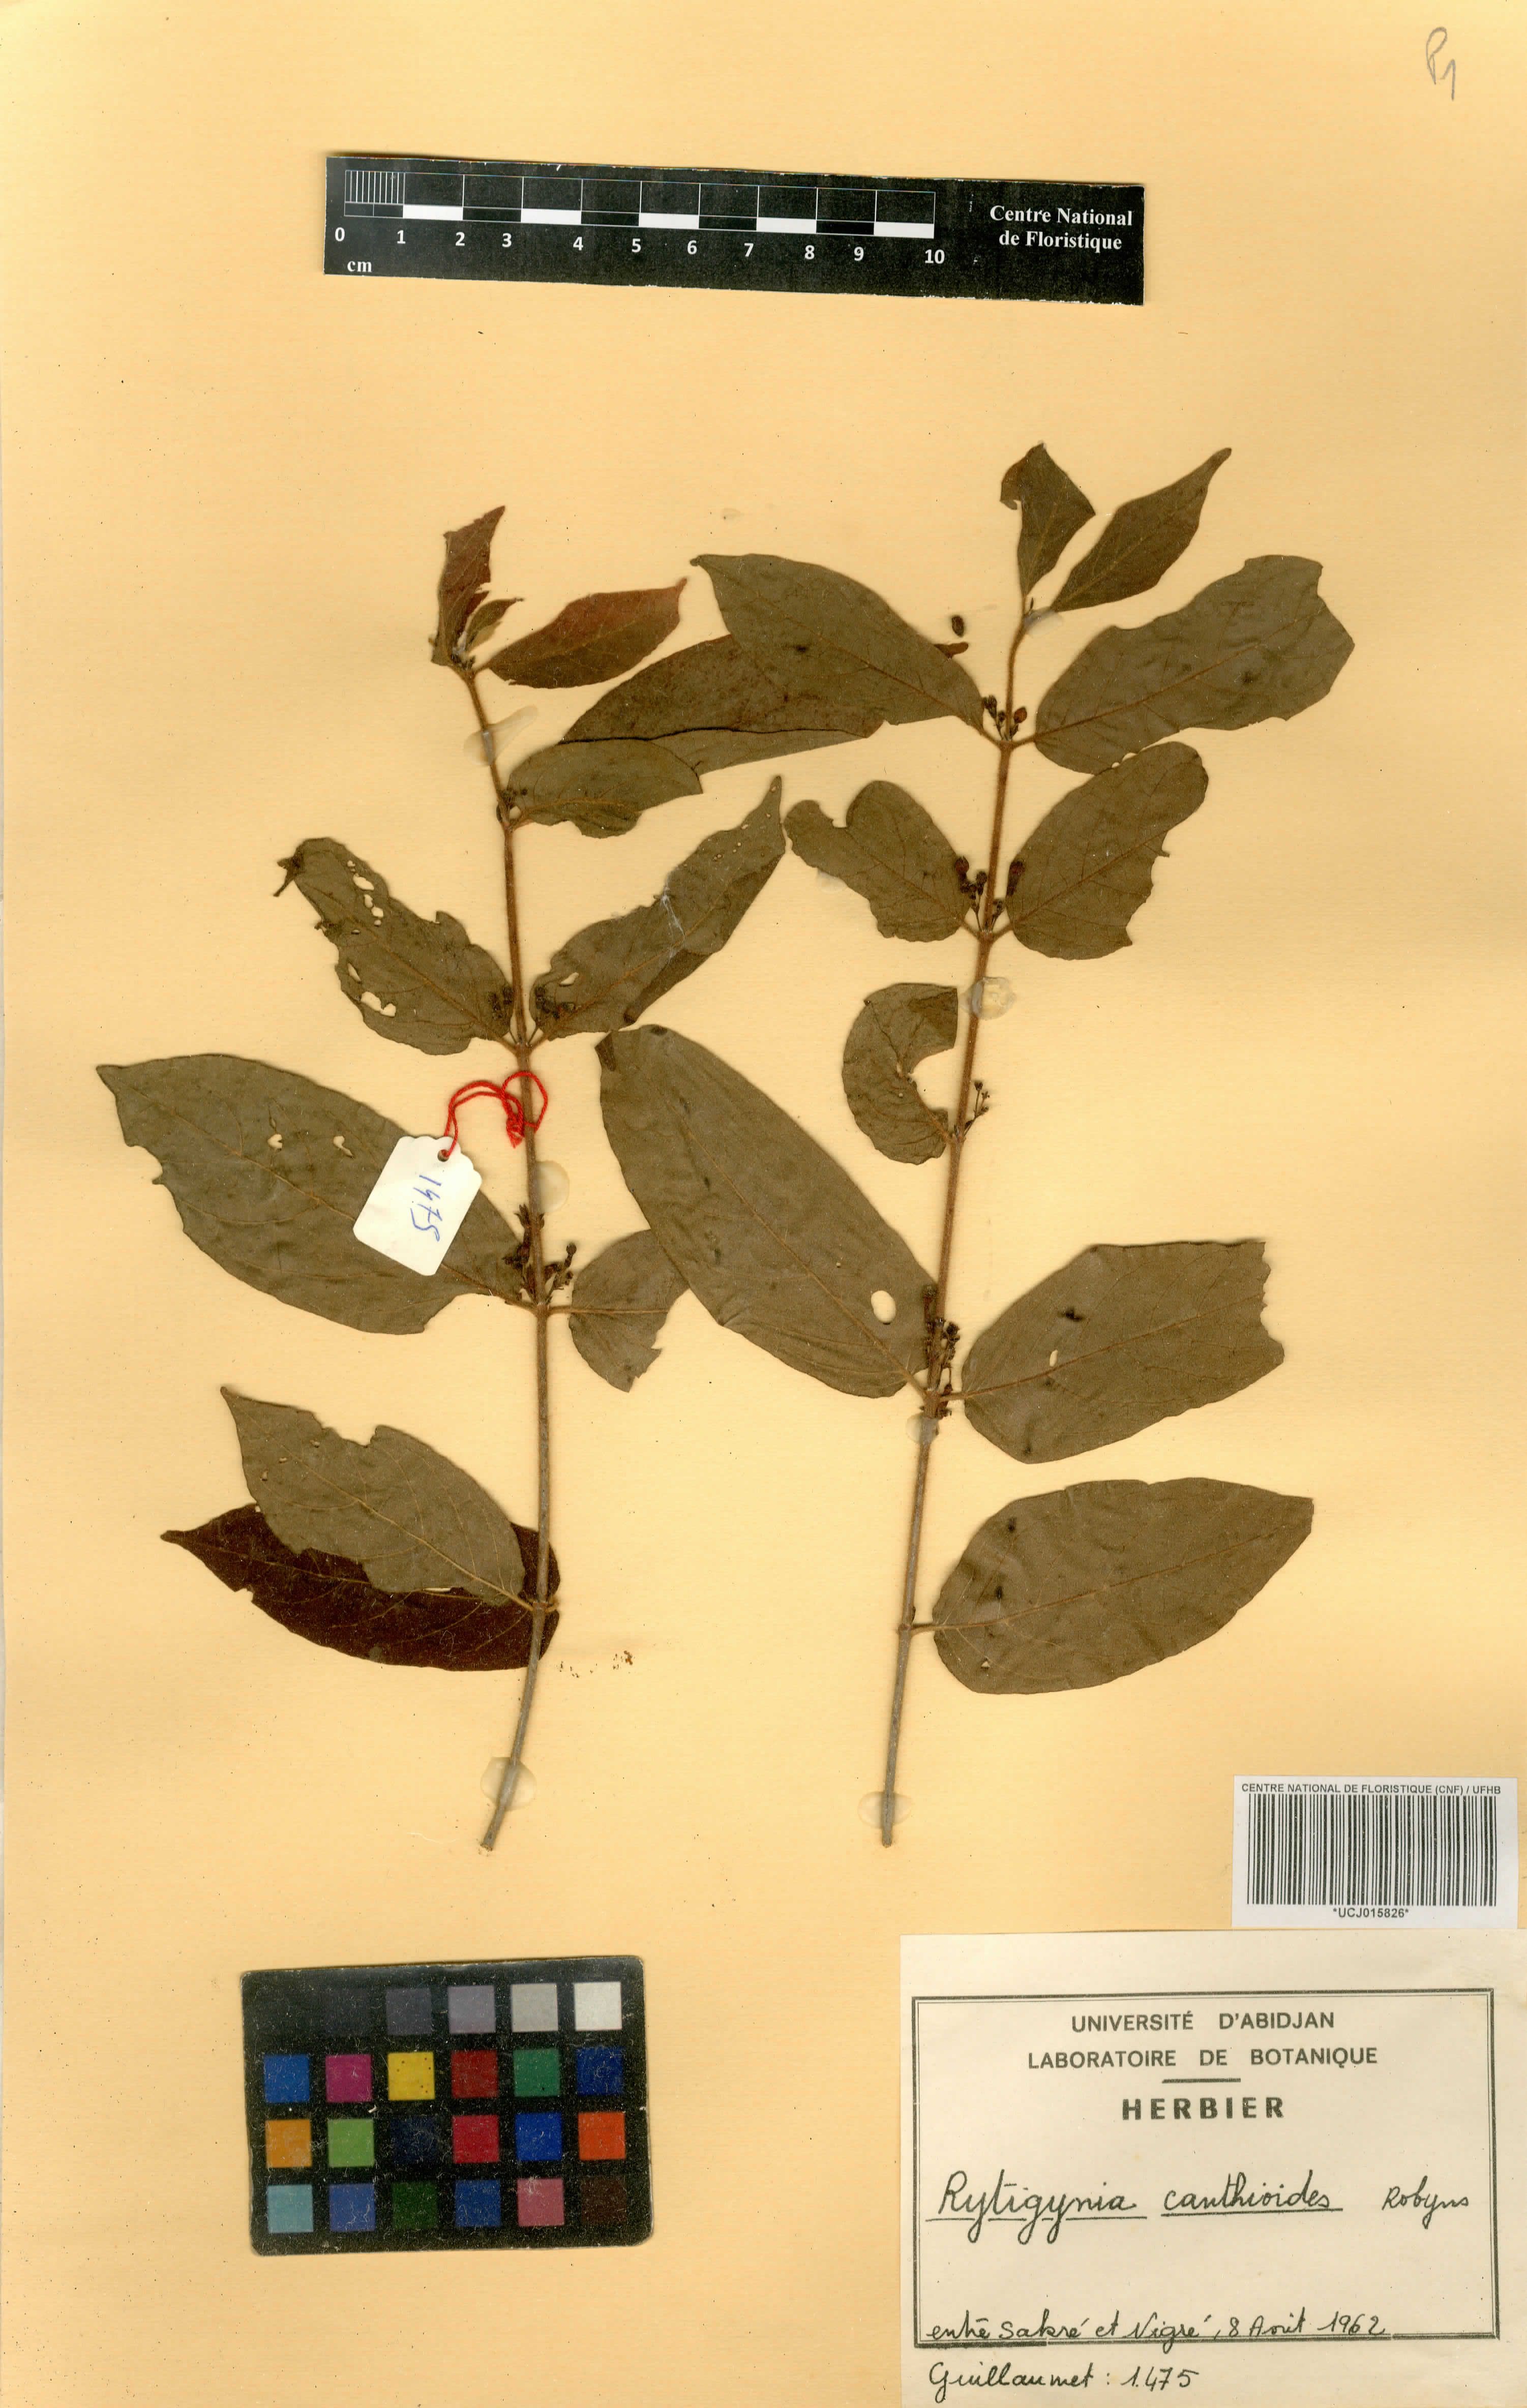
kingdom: Plantae
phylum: Tracheophyta
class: Magnoliopsida
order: Gentianales
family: Rubiaceae
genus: Rytigynia
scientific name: Rytigynia canthioides
